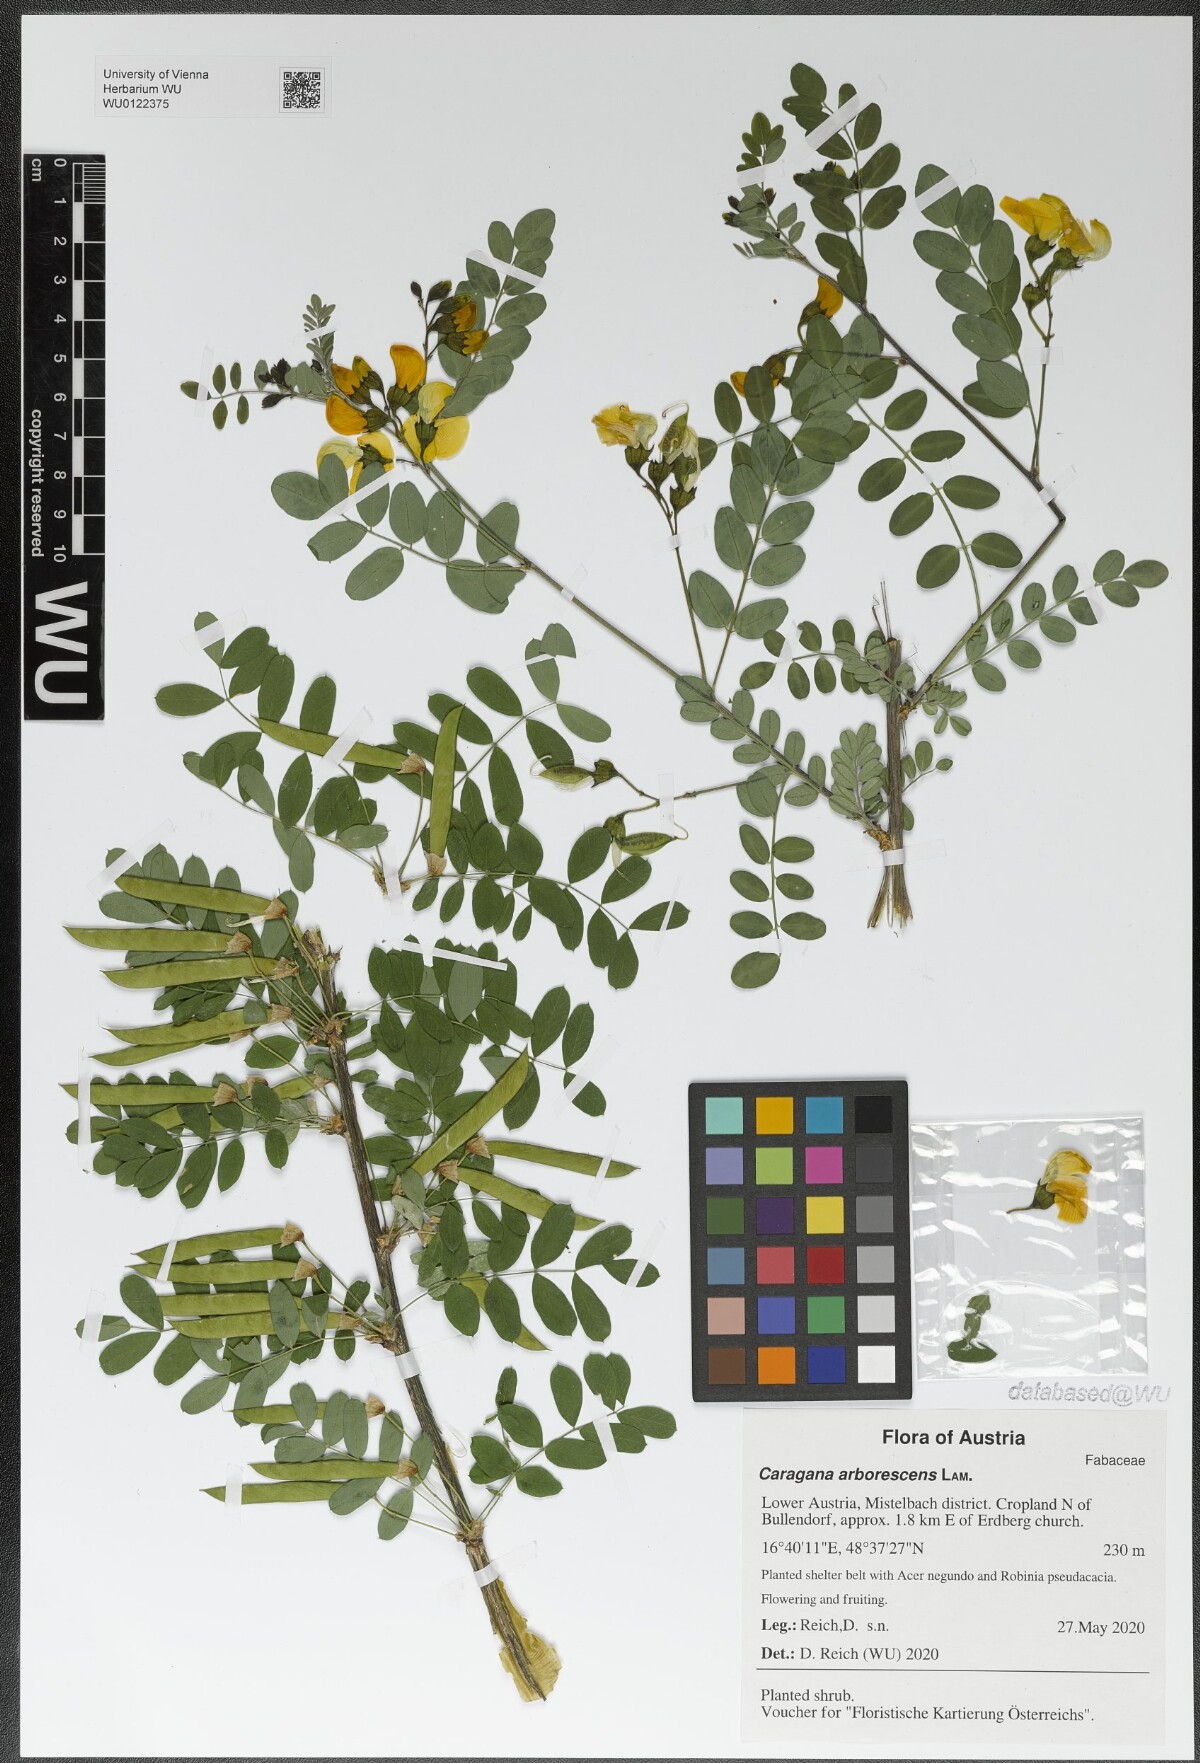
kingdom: Plantae
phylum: Tracheophyta
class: Magnoliopsida
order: Fabales
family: Fabaceae
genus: Caragana
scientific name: Caragana arborescens
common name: Siberian peashrub
